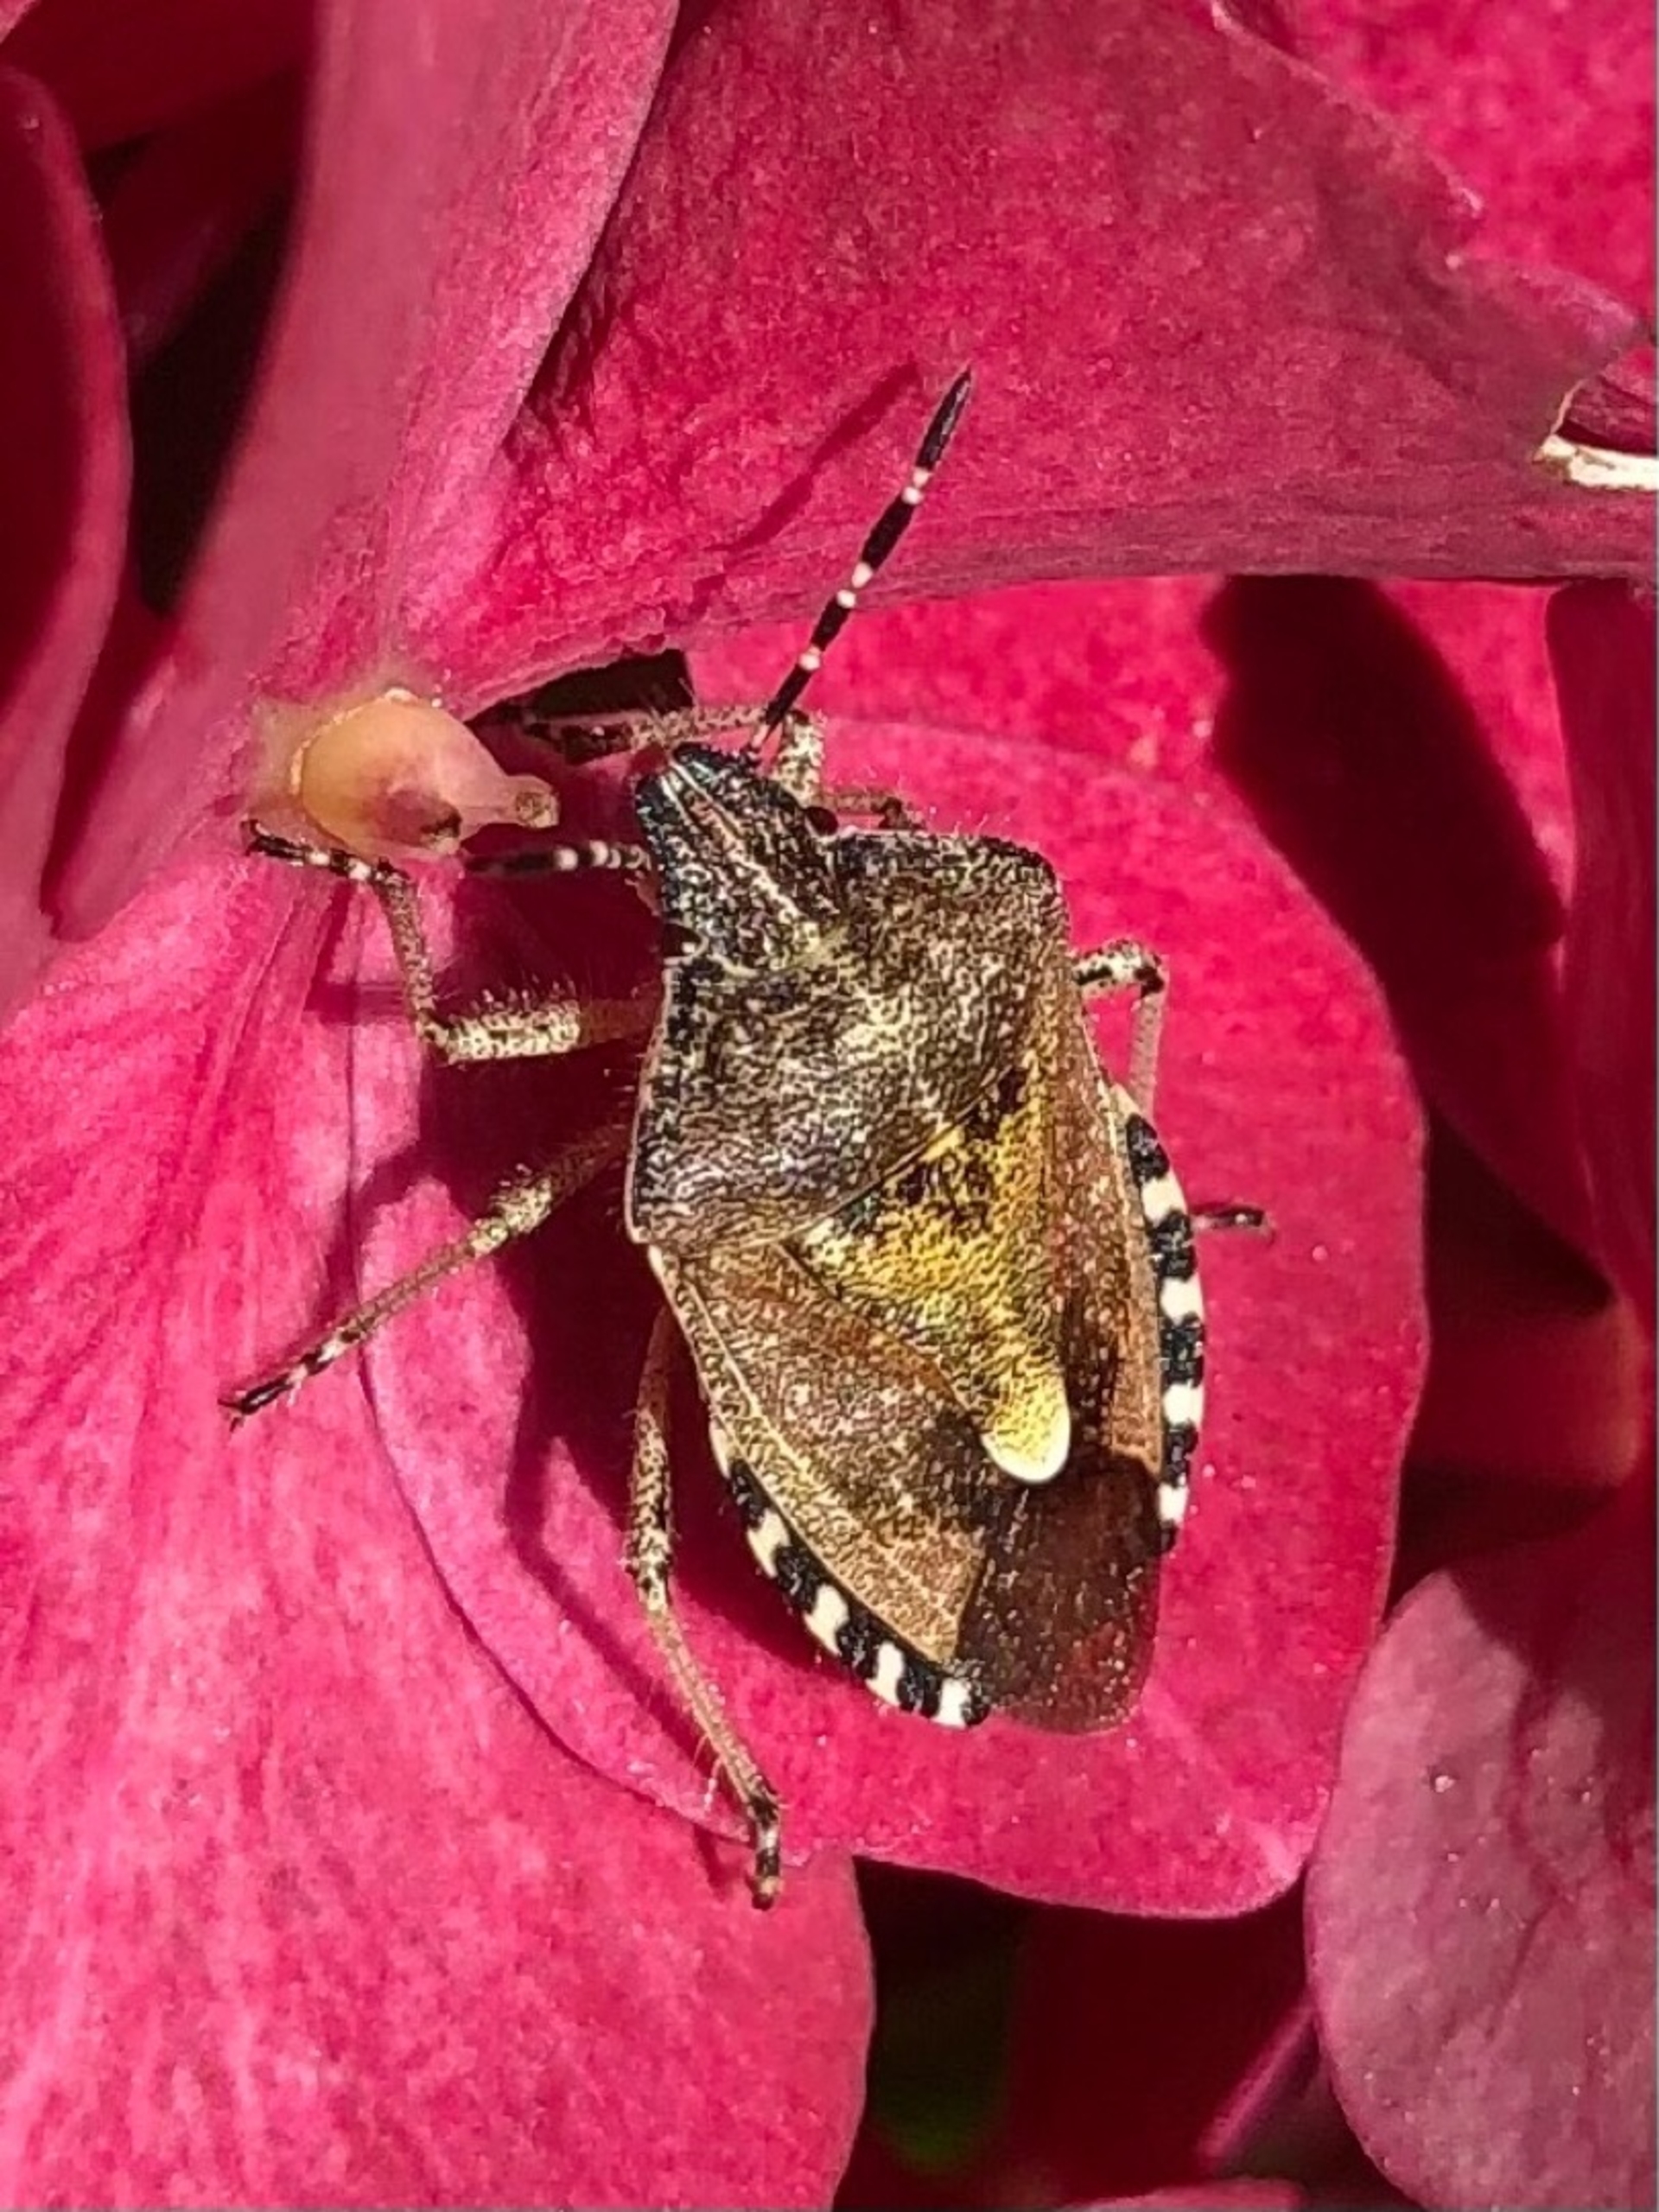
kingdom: Animalia
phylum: Arthropoda
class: Insecta
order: Hemiptera
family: Pentatomidae
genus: Dolycoris
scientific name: Dolycoris baccarum
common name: Almindelig bærtæge
